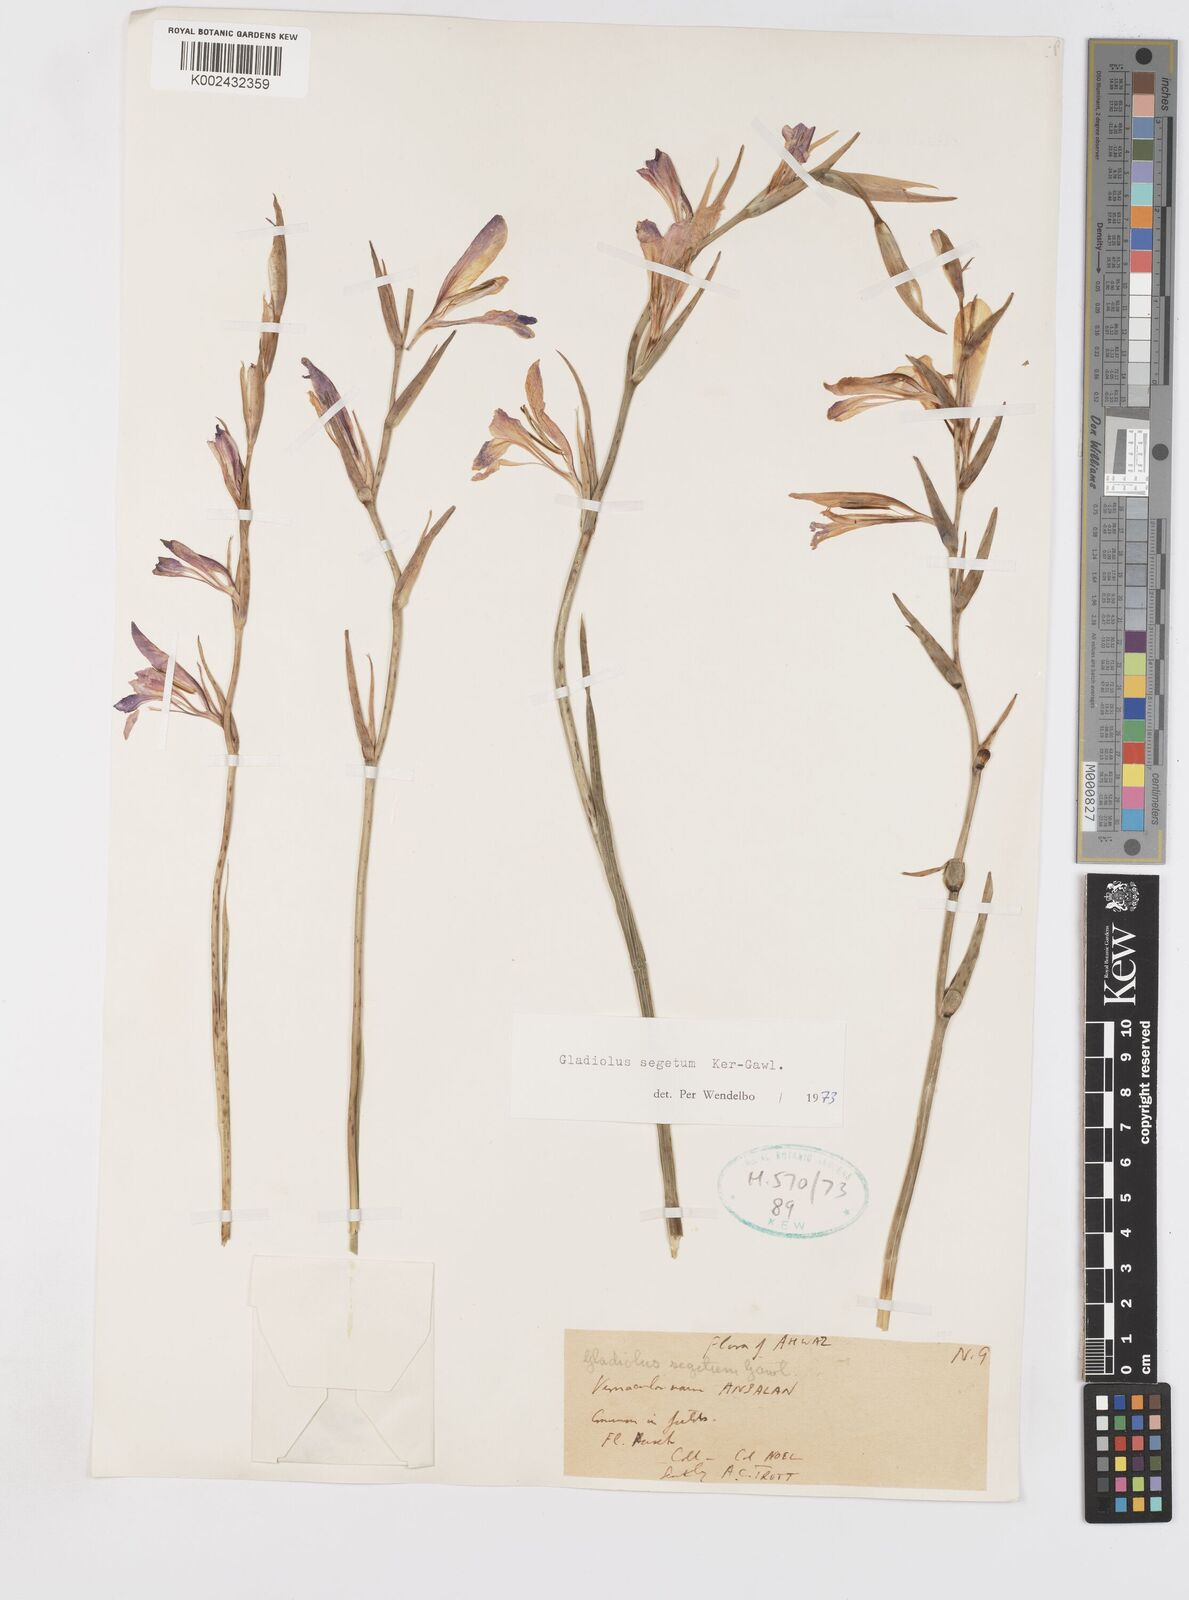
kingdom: Plantae
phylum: Tracheophyta
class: Liliopsida
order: Asparagales
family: Iridaceae
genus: Gladiolus
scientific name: Gladiolus italicus
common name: Field gladiolus
